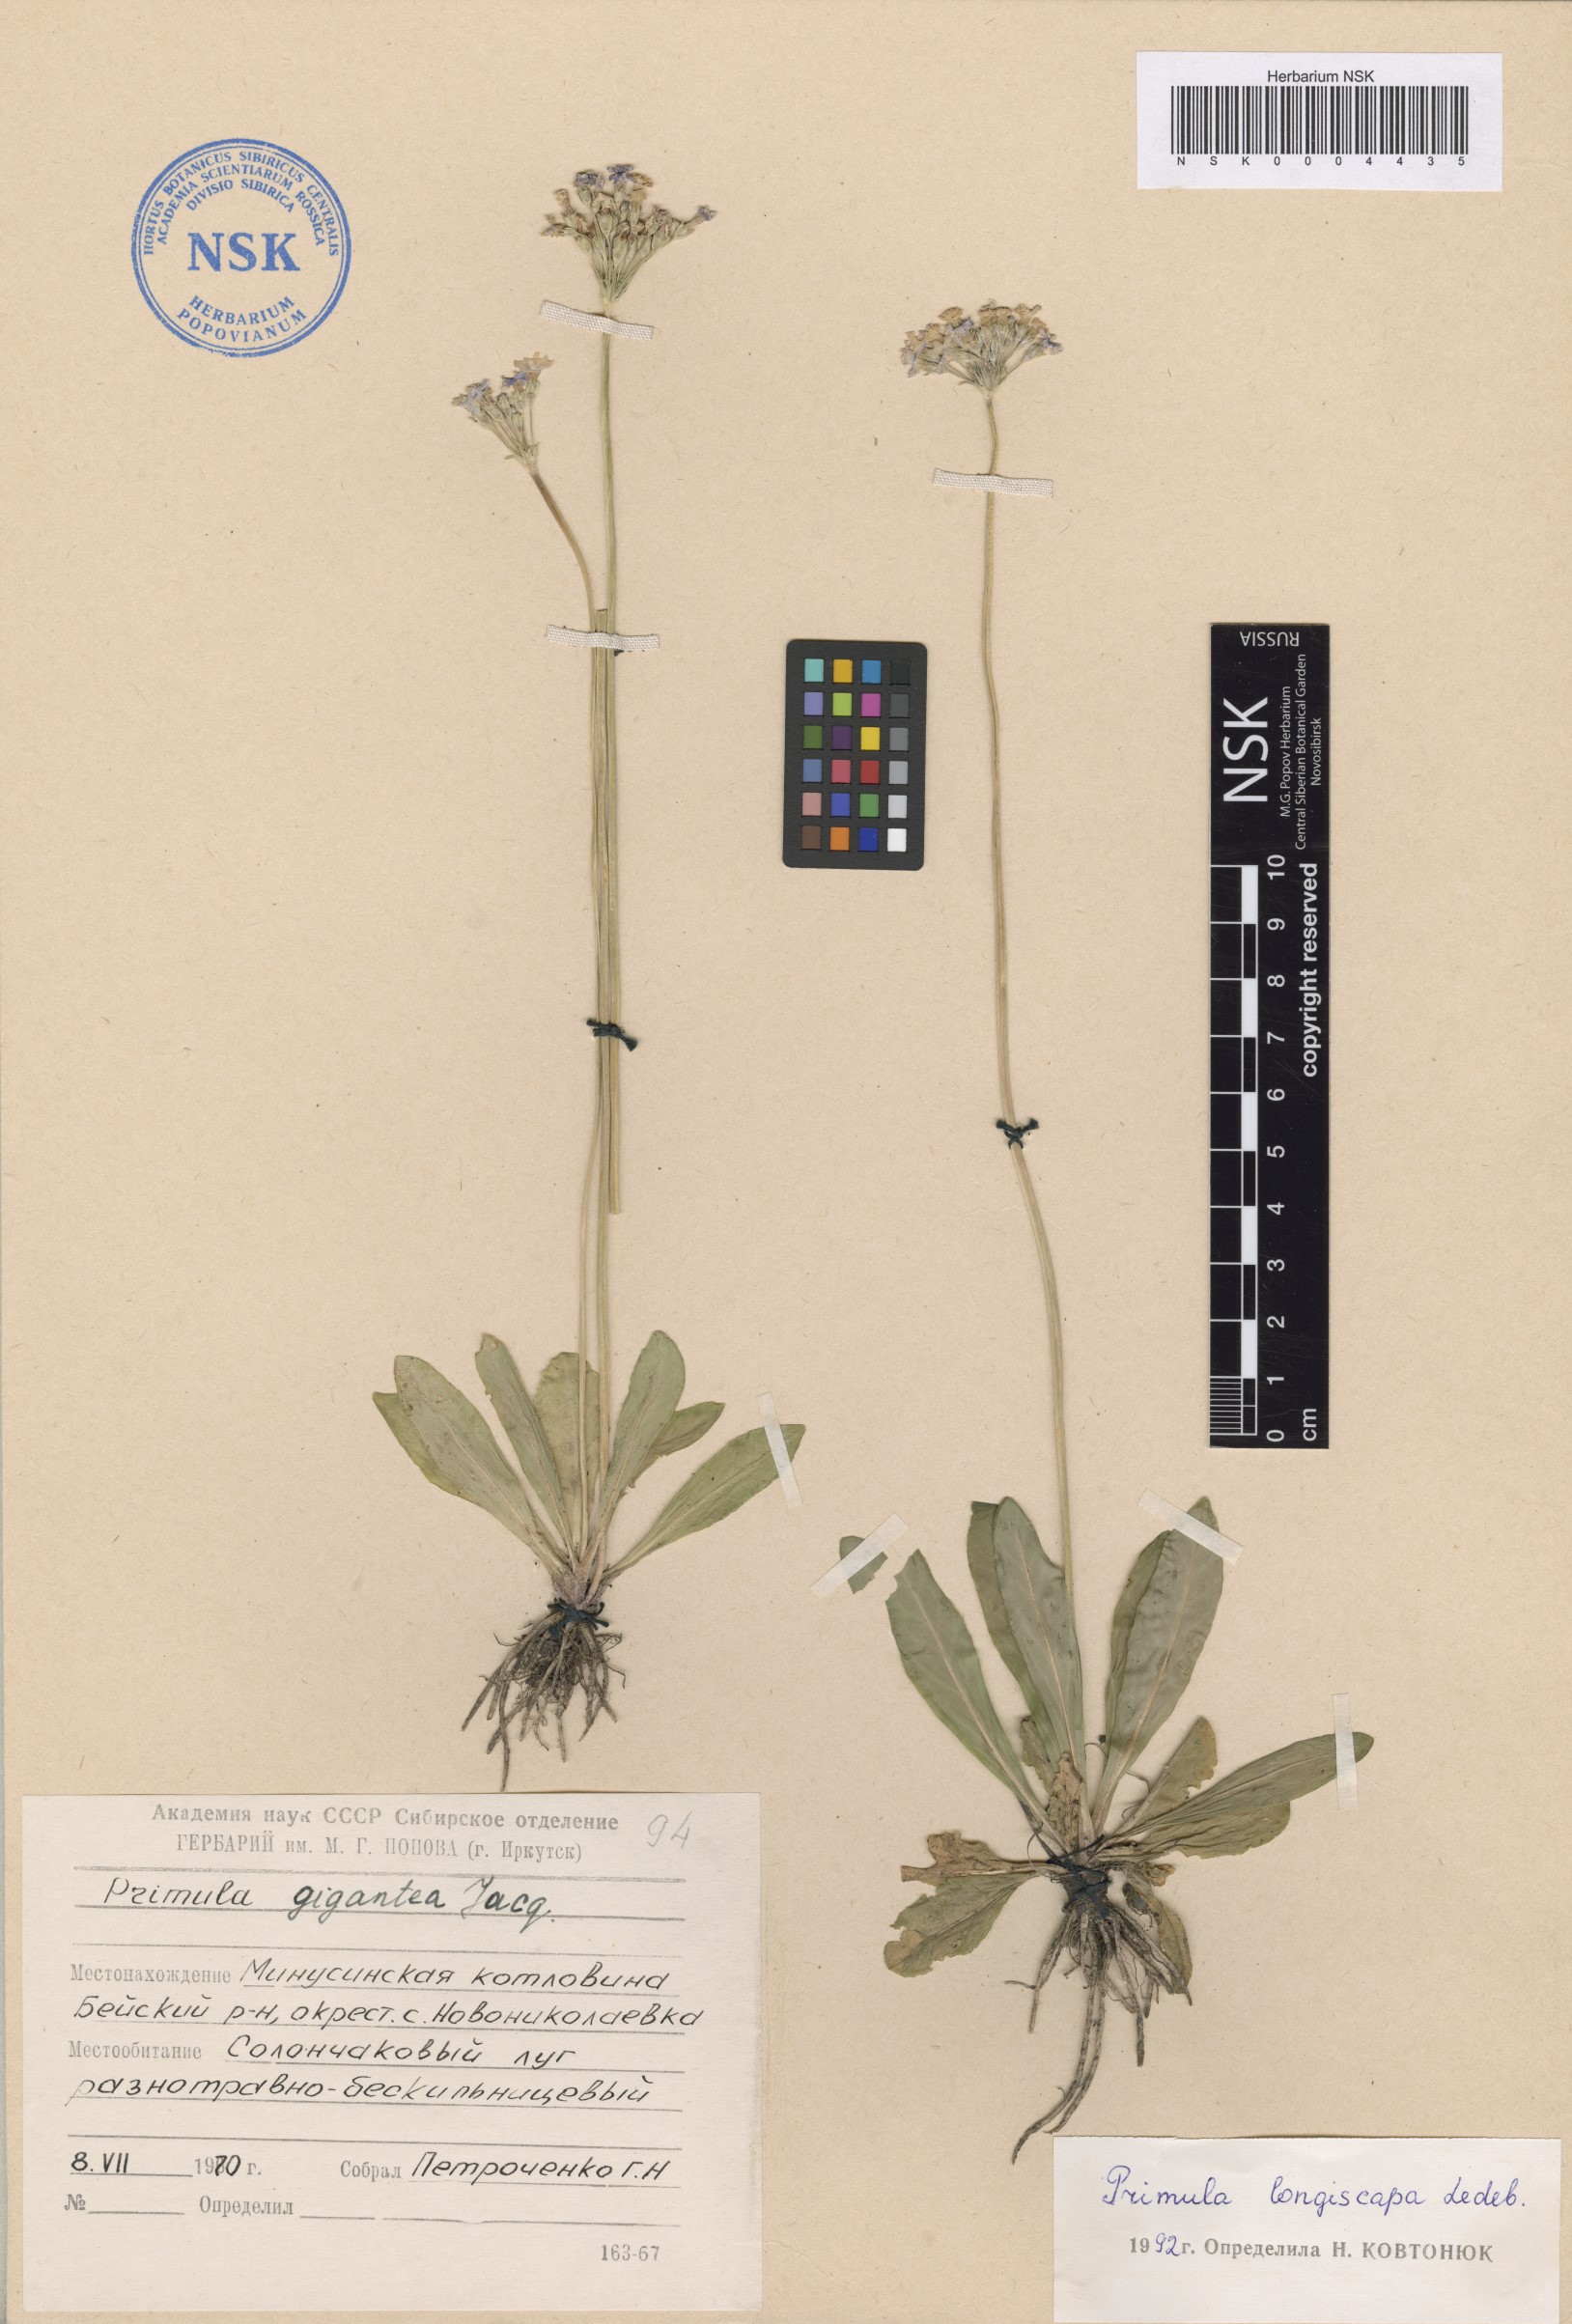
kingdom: Plantae
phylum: Tracheophyta
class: Magnoliopsida
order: Ericales
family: Primulaceae
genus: Primula
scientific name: Primula longiscapa
